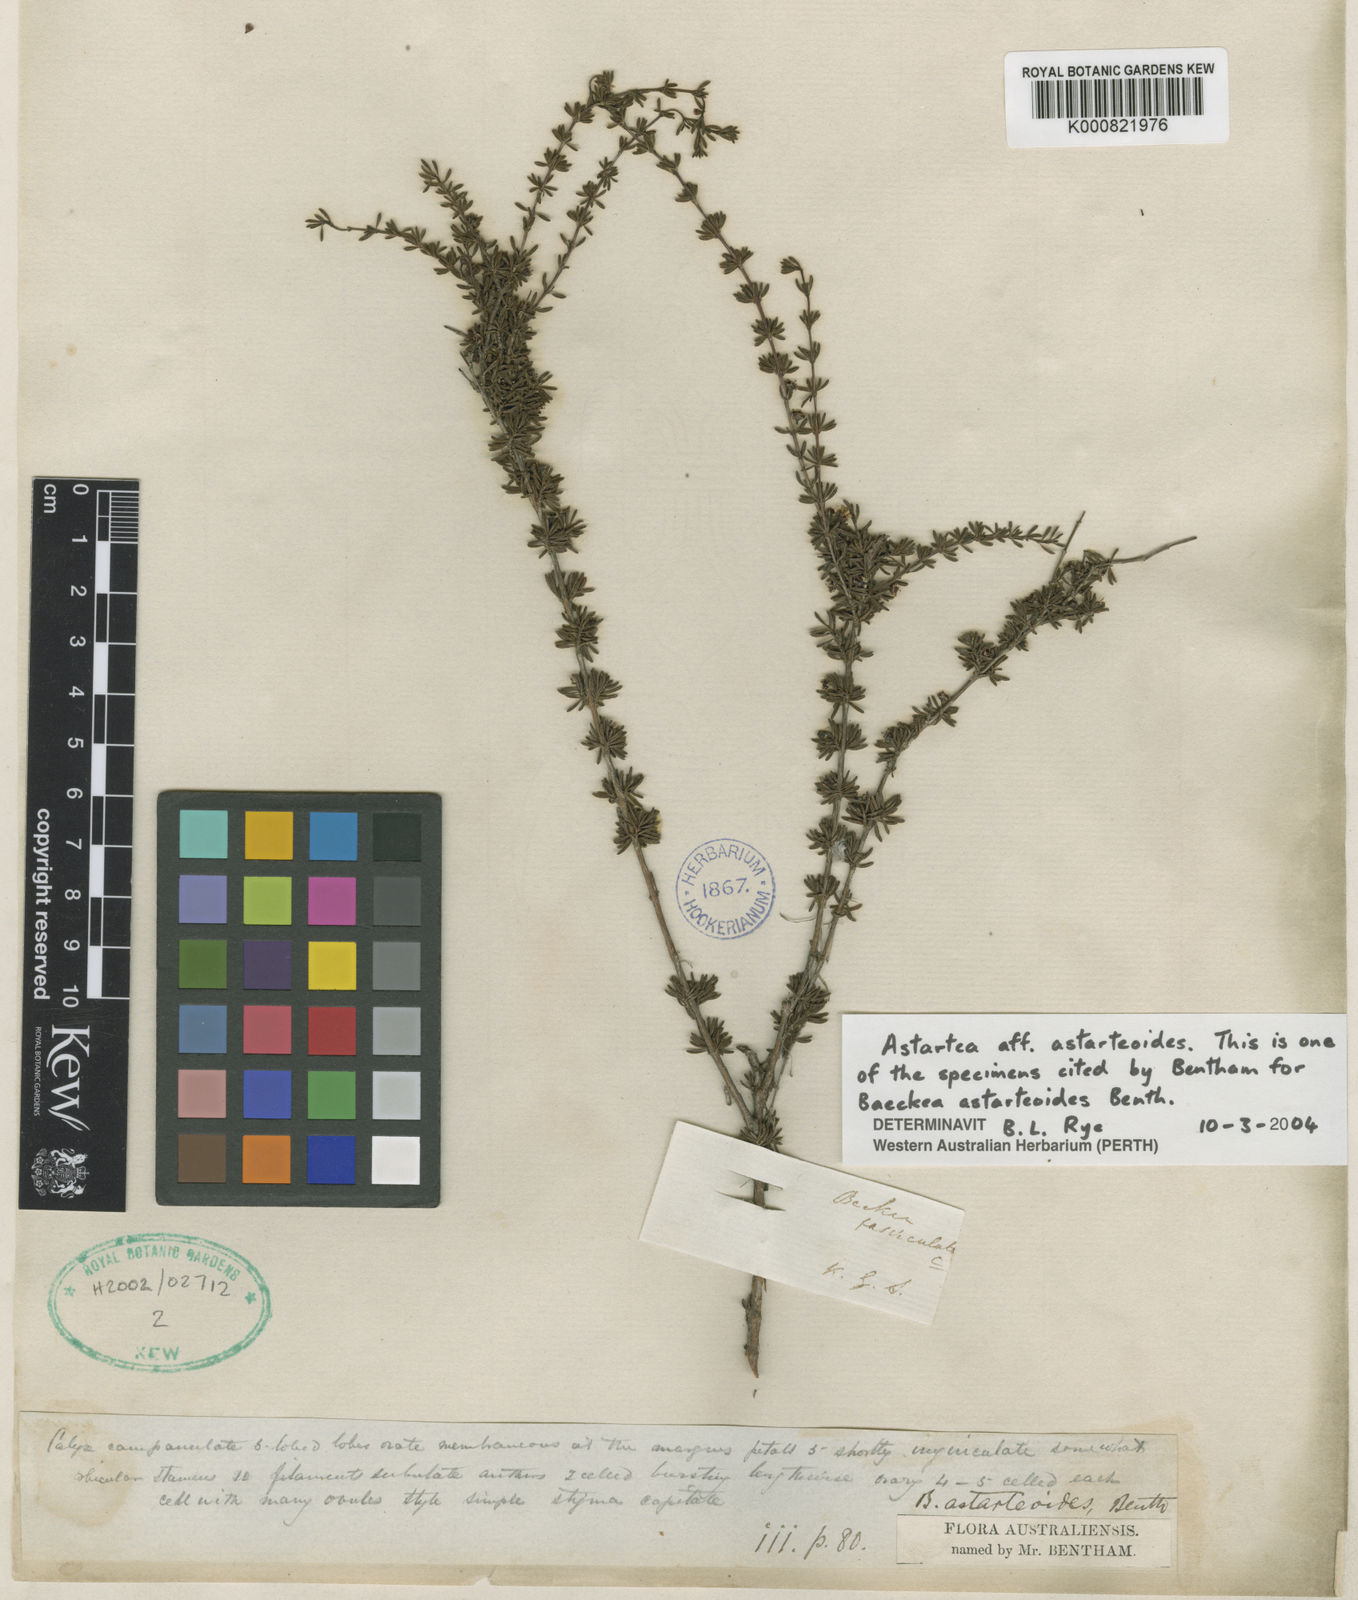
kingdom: Plantae
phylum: Tracheophyta
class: Magnoliopsida
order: Myrtales
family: Myrtaceae
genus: Astartea
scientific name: Astartea astarteoides
